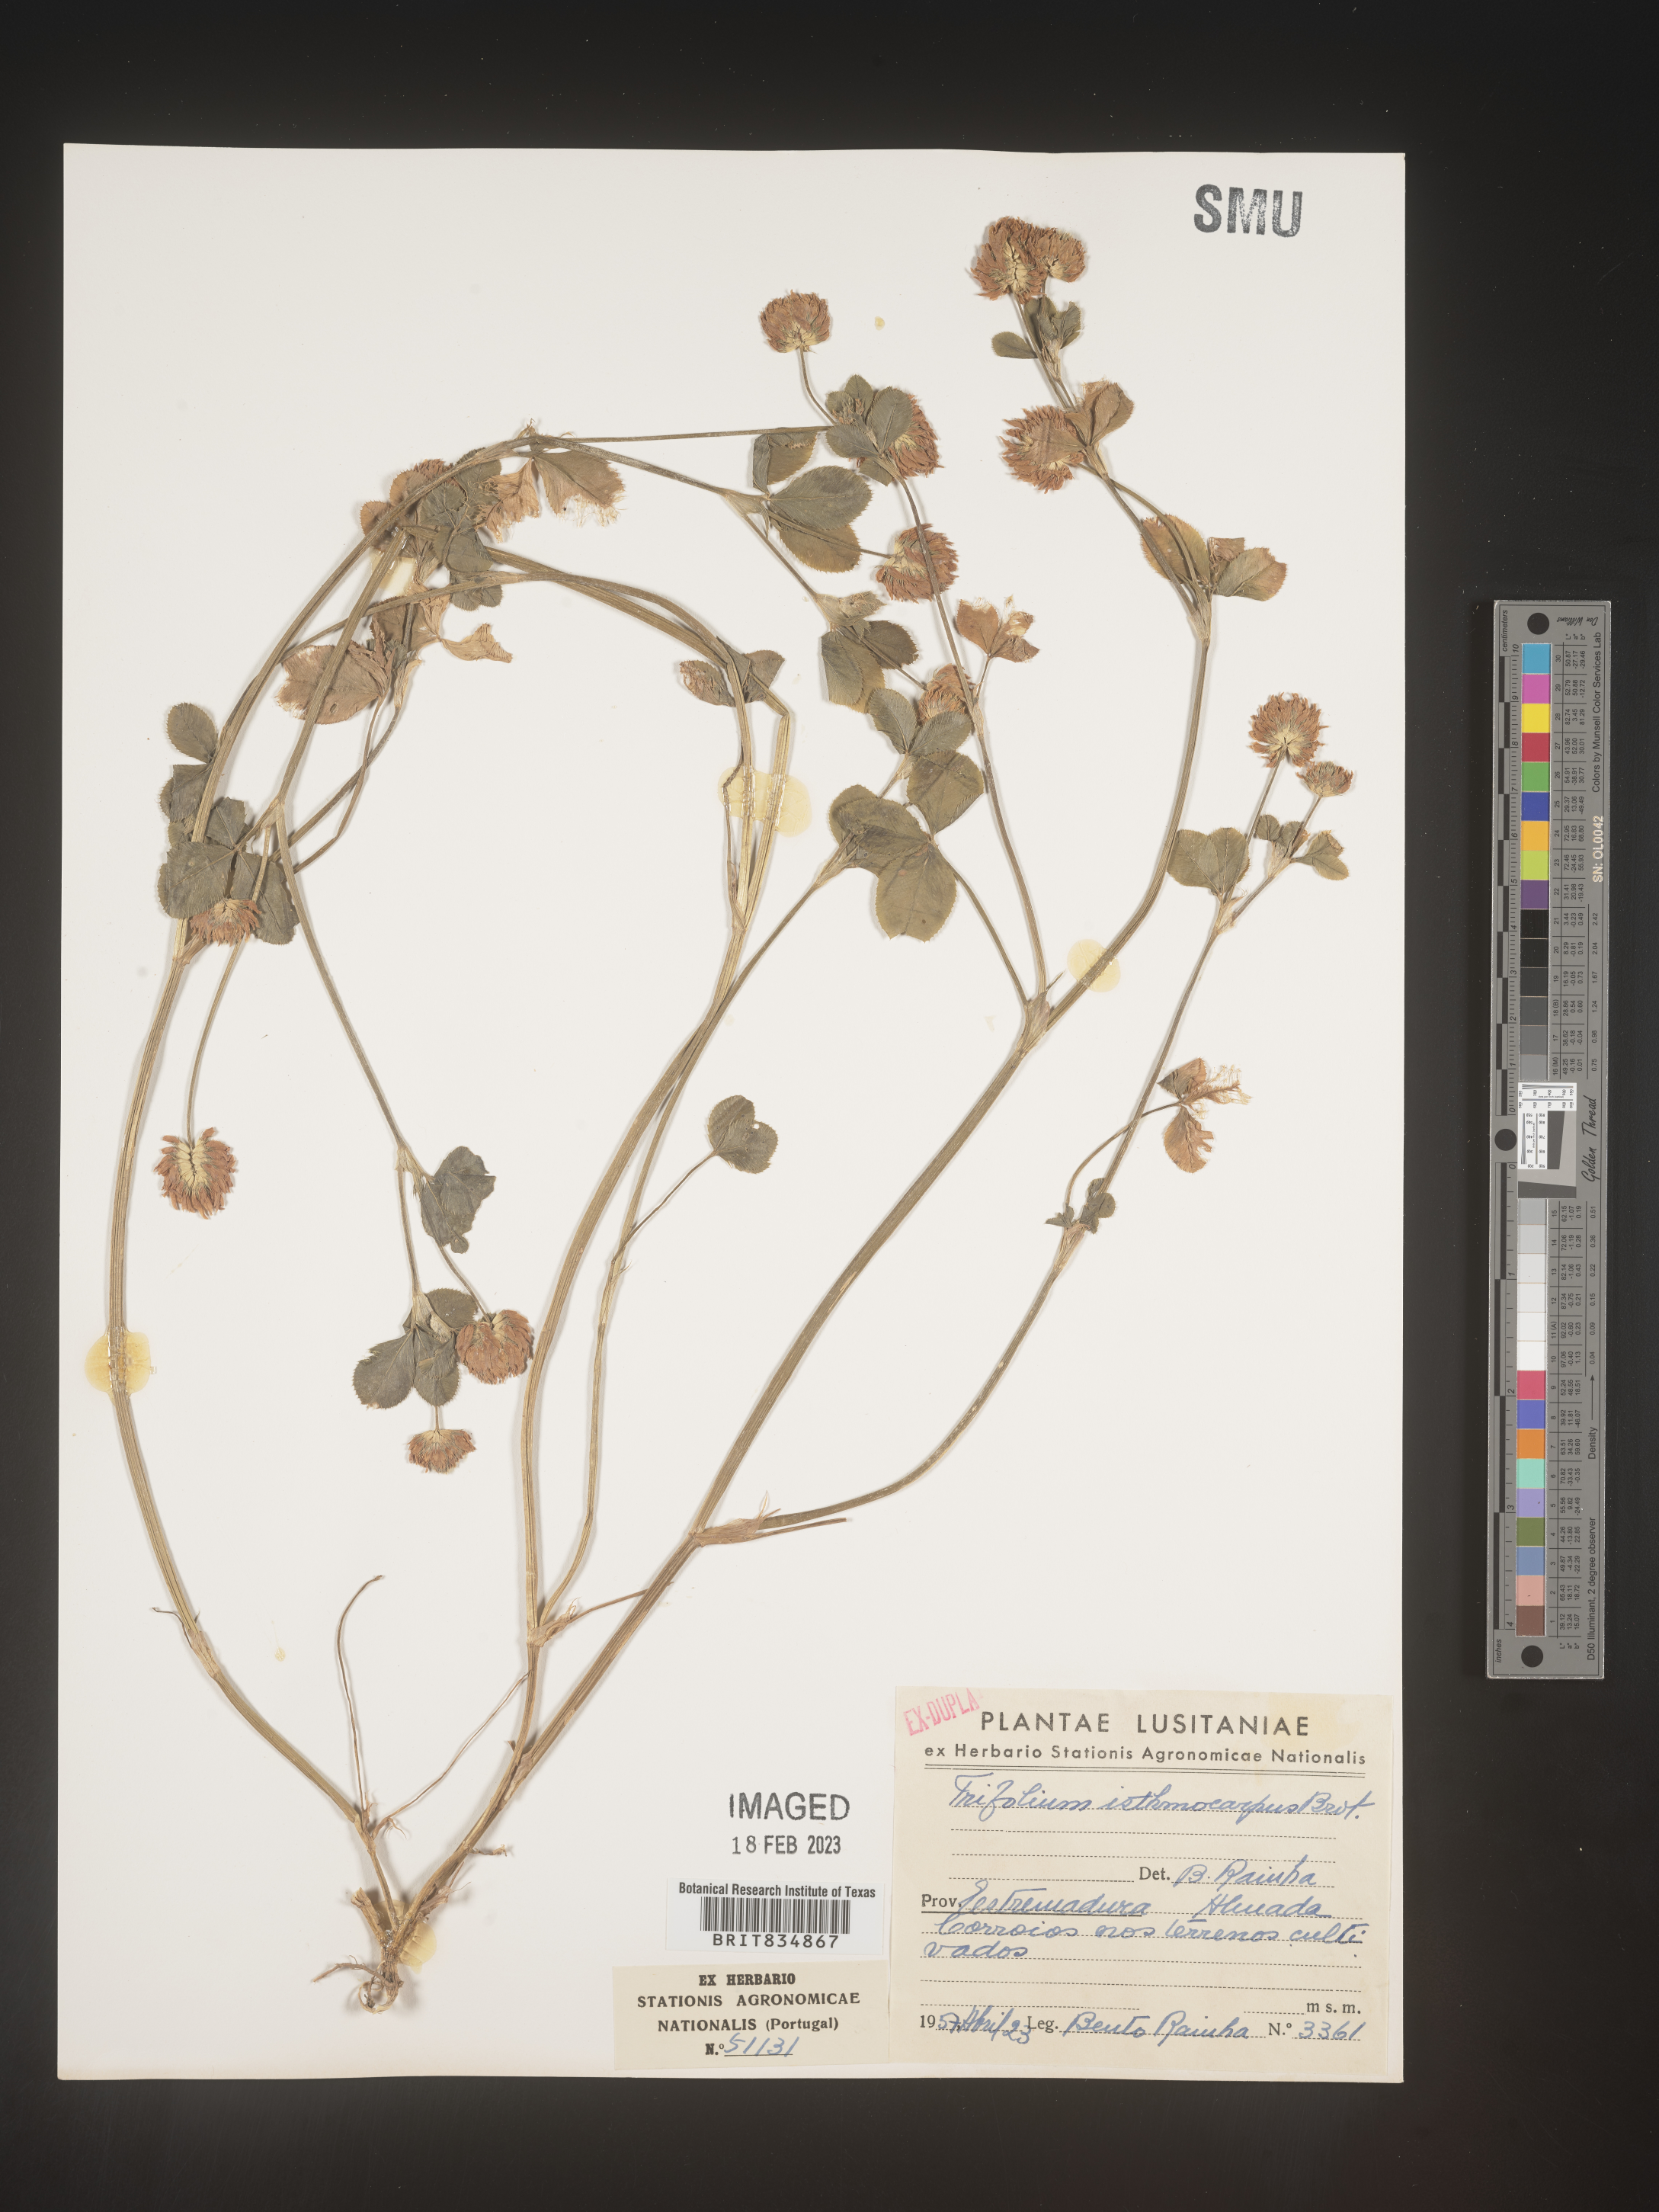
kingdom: Plantae
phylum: Tracheophyta
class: Magnoliopsida
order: Fabales
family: Fabaceae
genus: Trifolium
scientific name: Trifolium incarnatum
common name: Crimson clover
